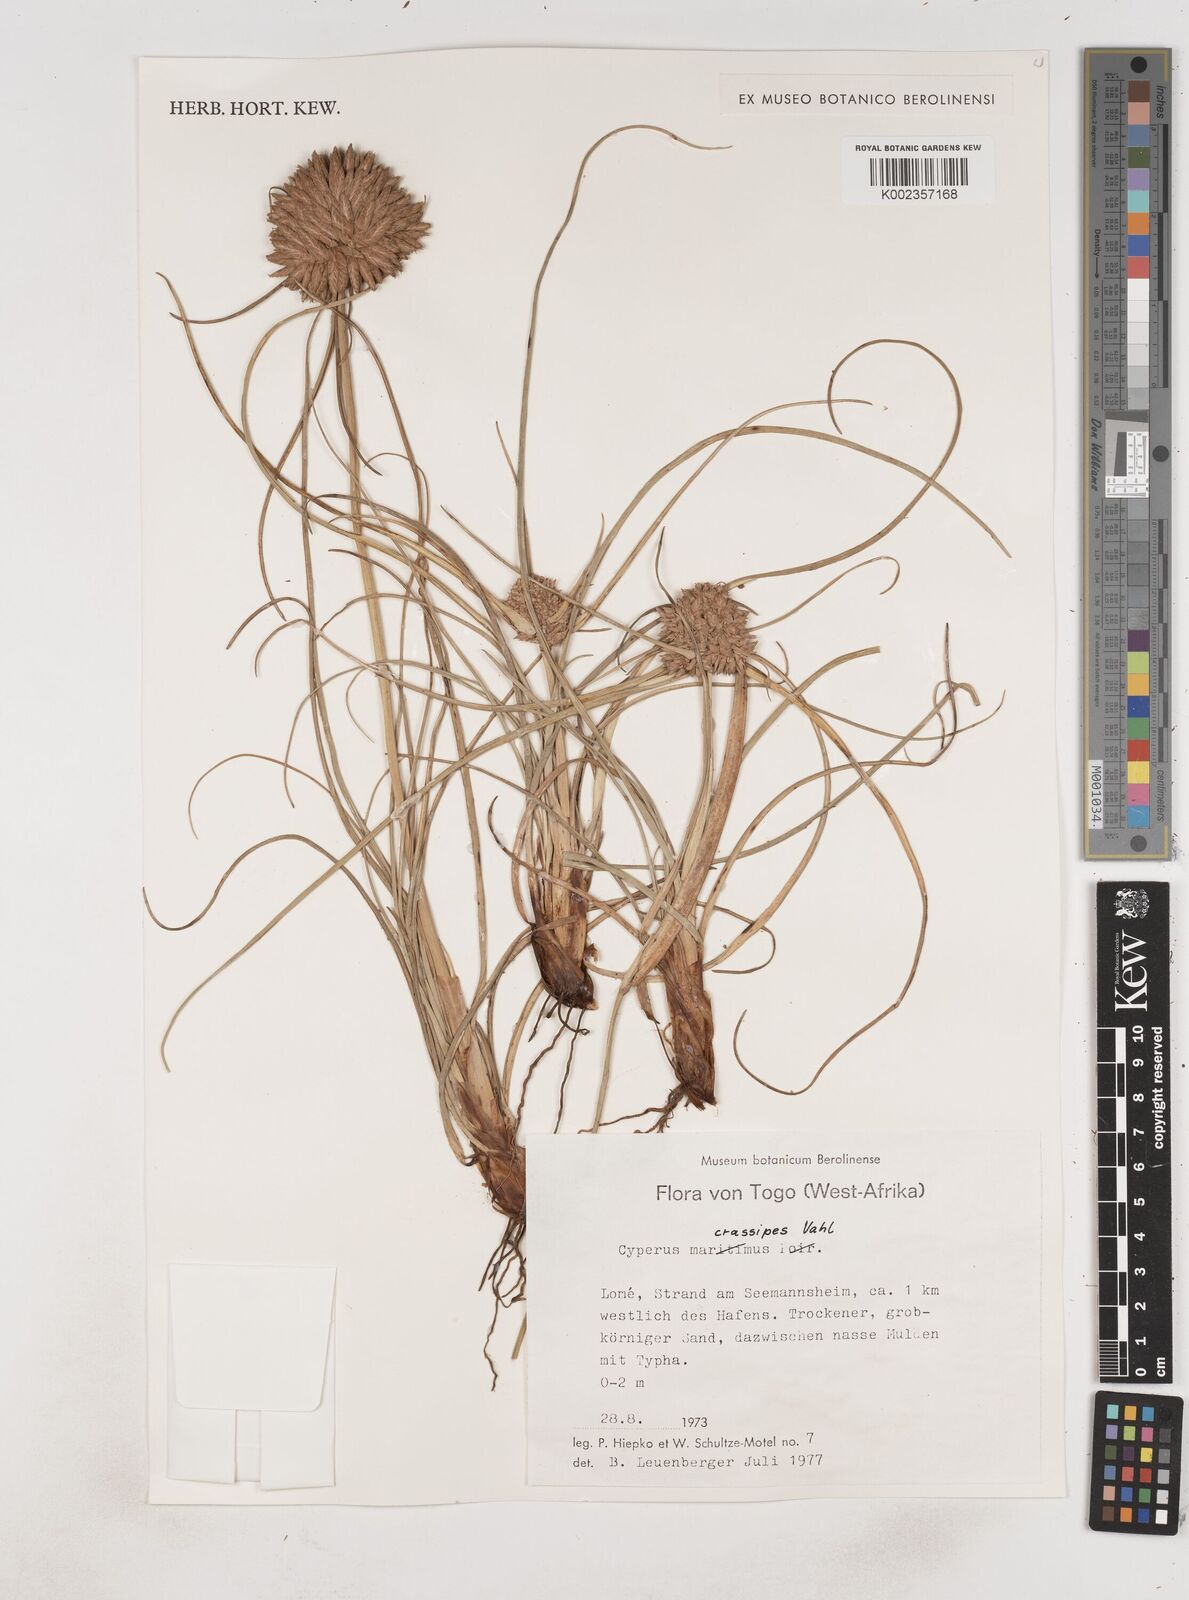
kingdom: Plantae
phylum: Tracheophyta
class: Liliopsida
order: Poales
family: Cyperaceae
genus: Cyperus
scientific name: Cyperus crassipes
